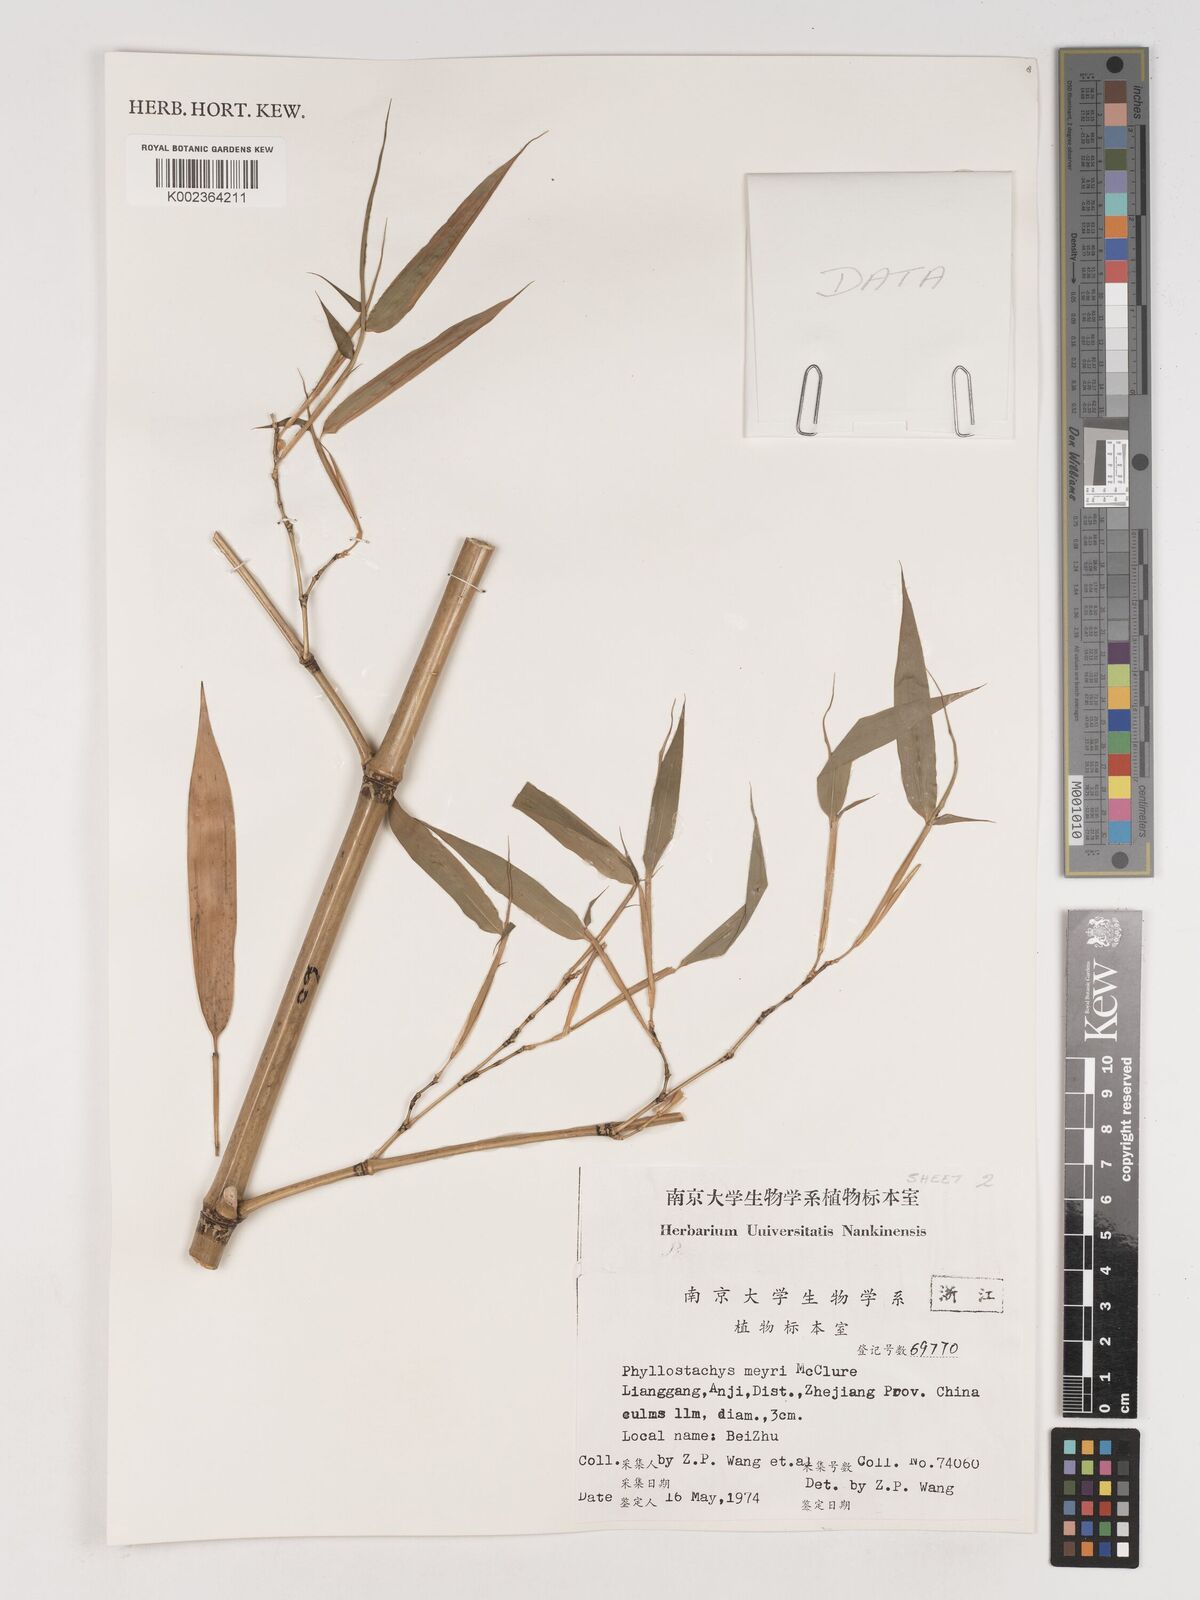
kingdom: Plantae
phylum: Tracheophyta
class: Liliopsida
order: Poales
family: Poaceae
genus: Phyllostachys
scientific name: Phyllostachys meyeri
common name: Meyer's bamboo
